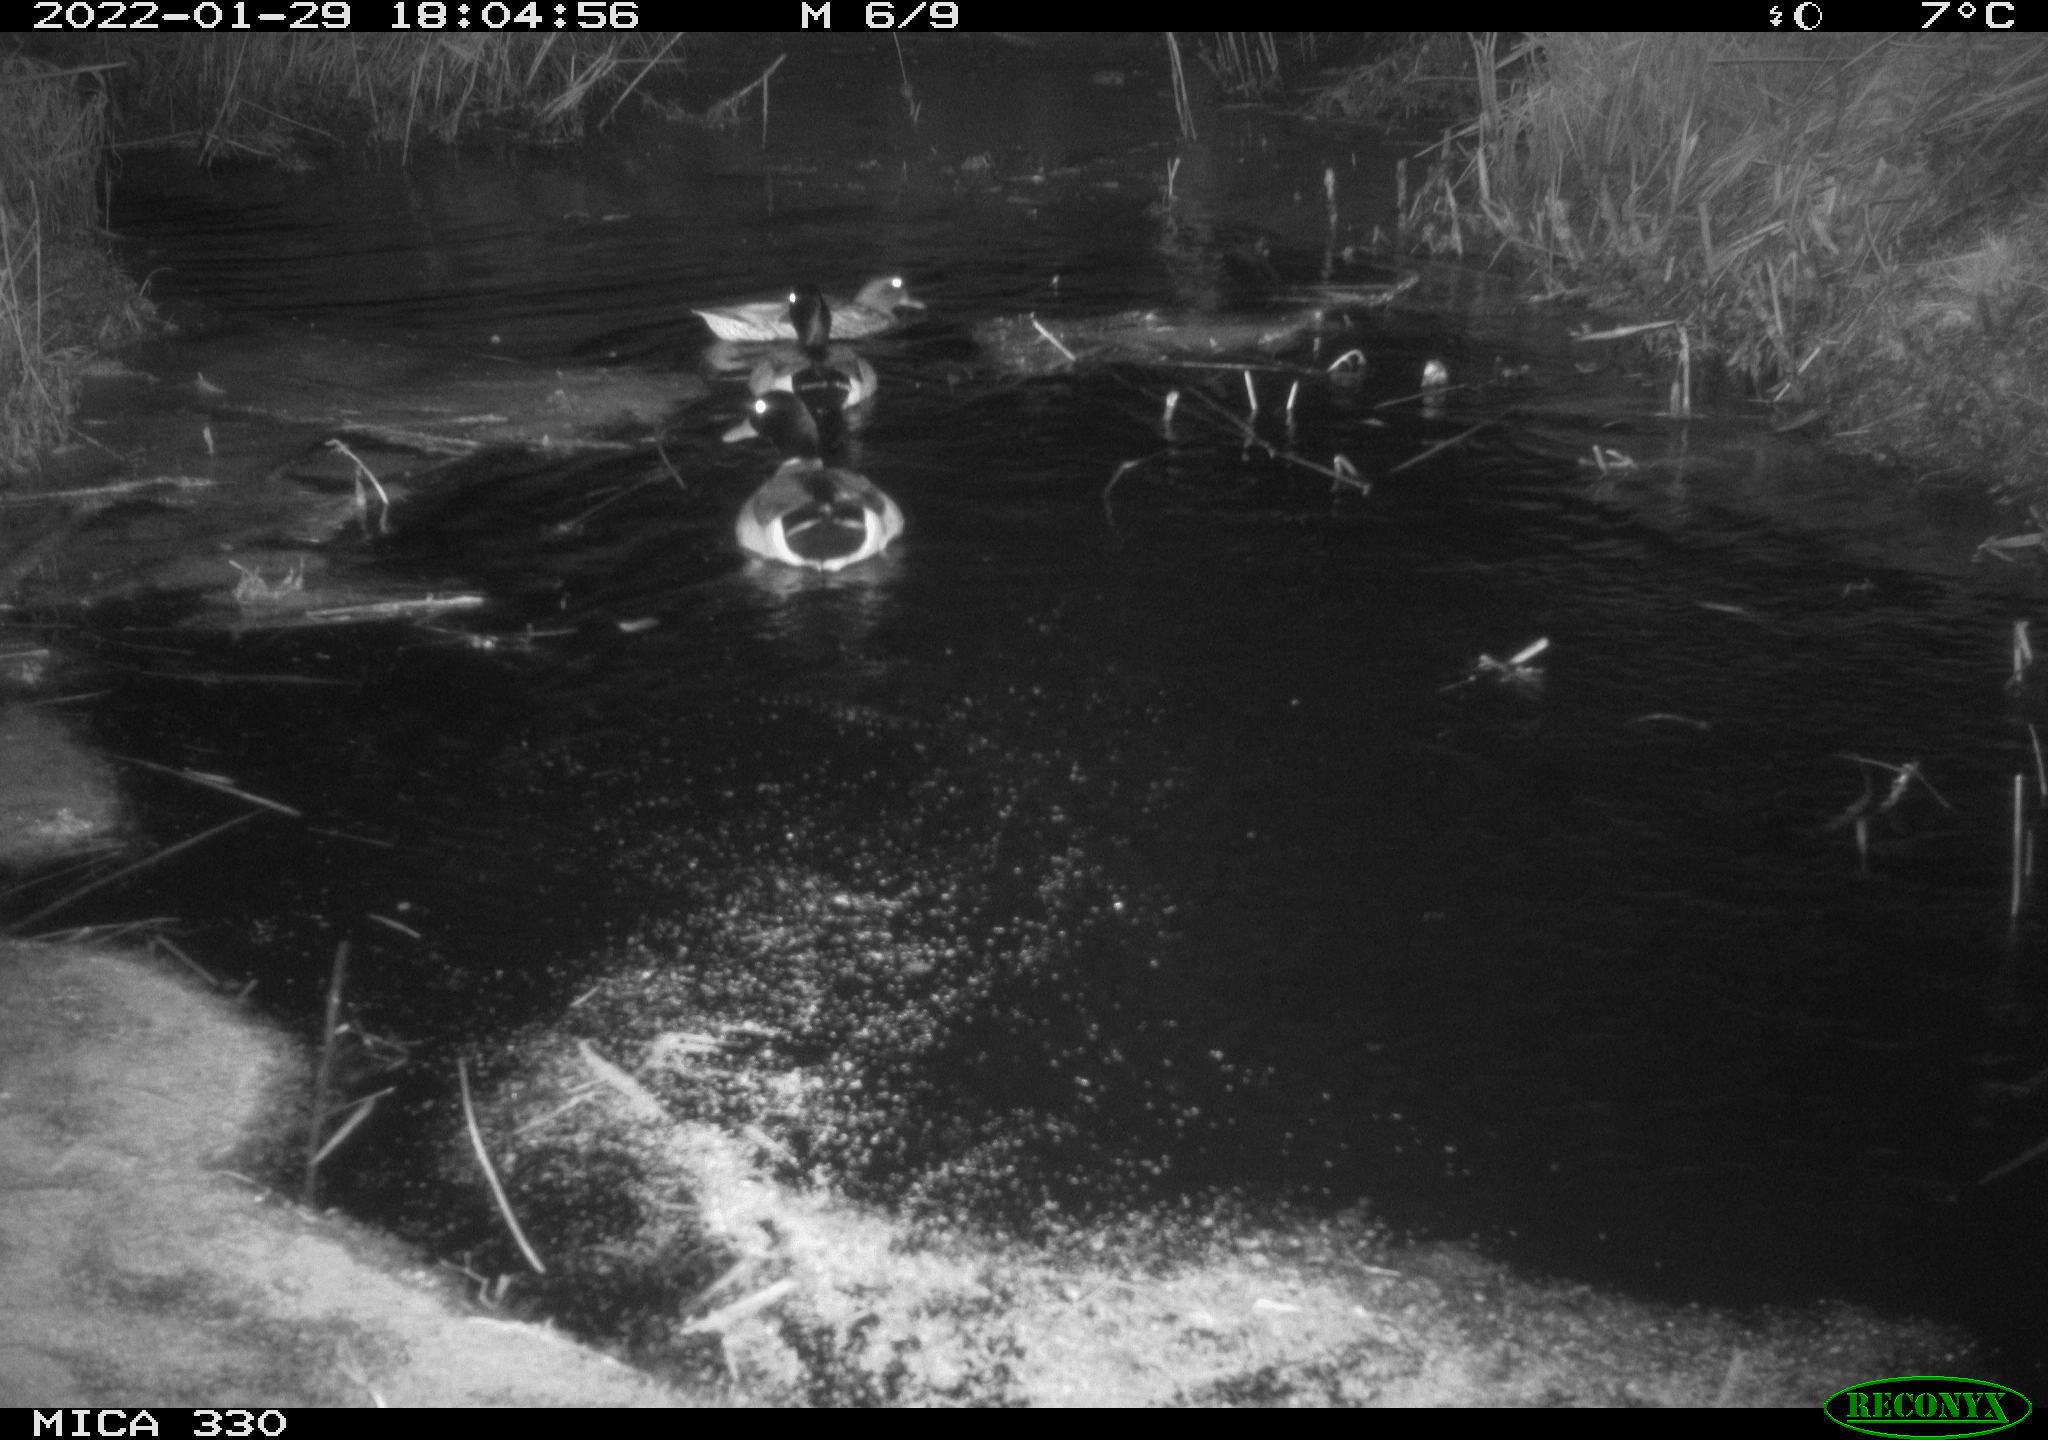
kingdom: Animalia
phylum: Chordata
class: Aves
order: Anseriformes
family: Anatidae
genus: Anas
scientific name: Anas platyrhynchos
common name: Mallard
